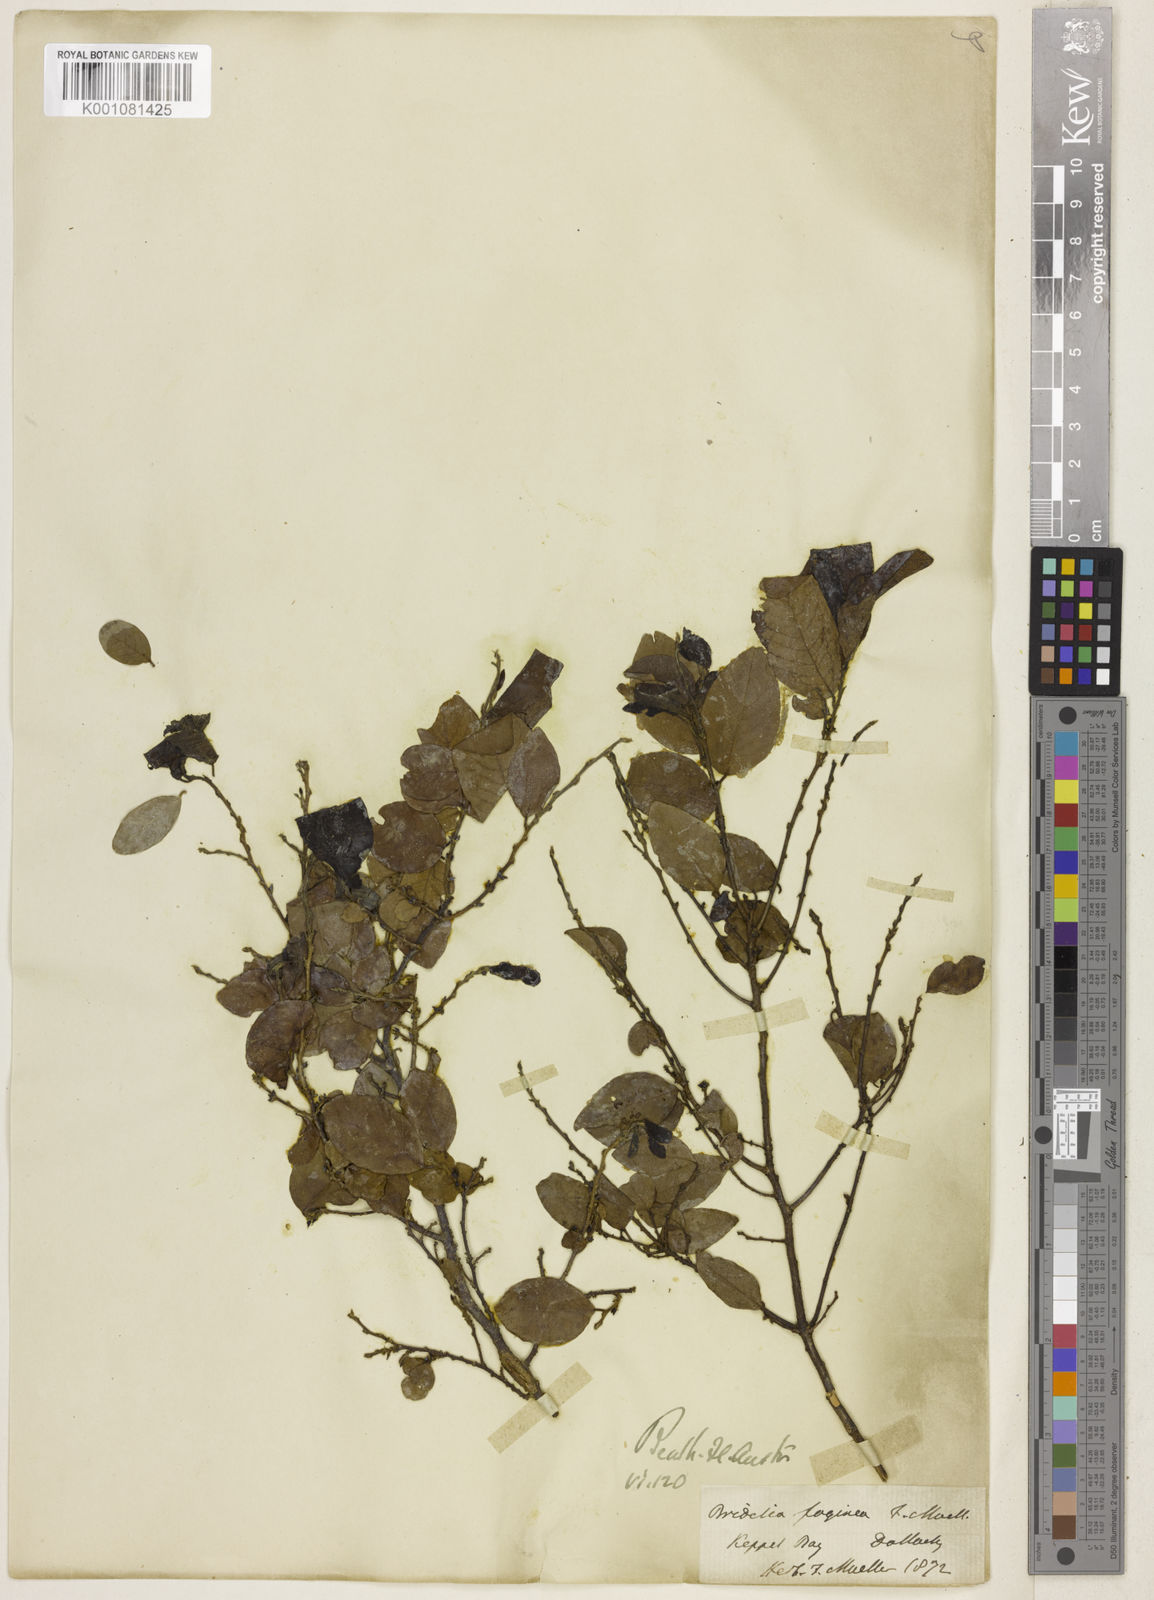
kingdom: Plantae
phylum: Tracheophyta
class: Magnoliopsida
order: Malpighiales
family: Phyllanthaceae
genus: Bridelia
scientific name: Bridelia
